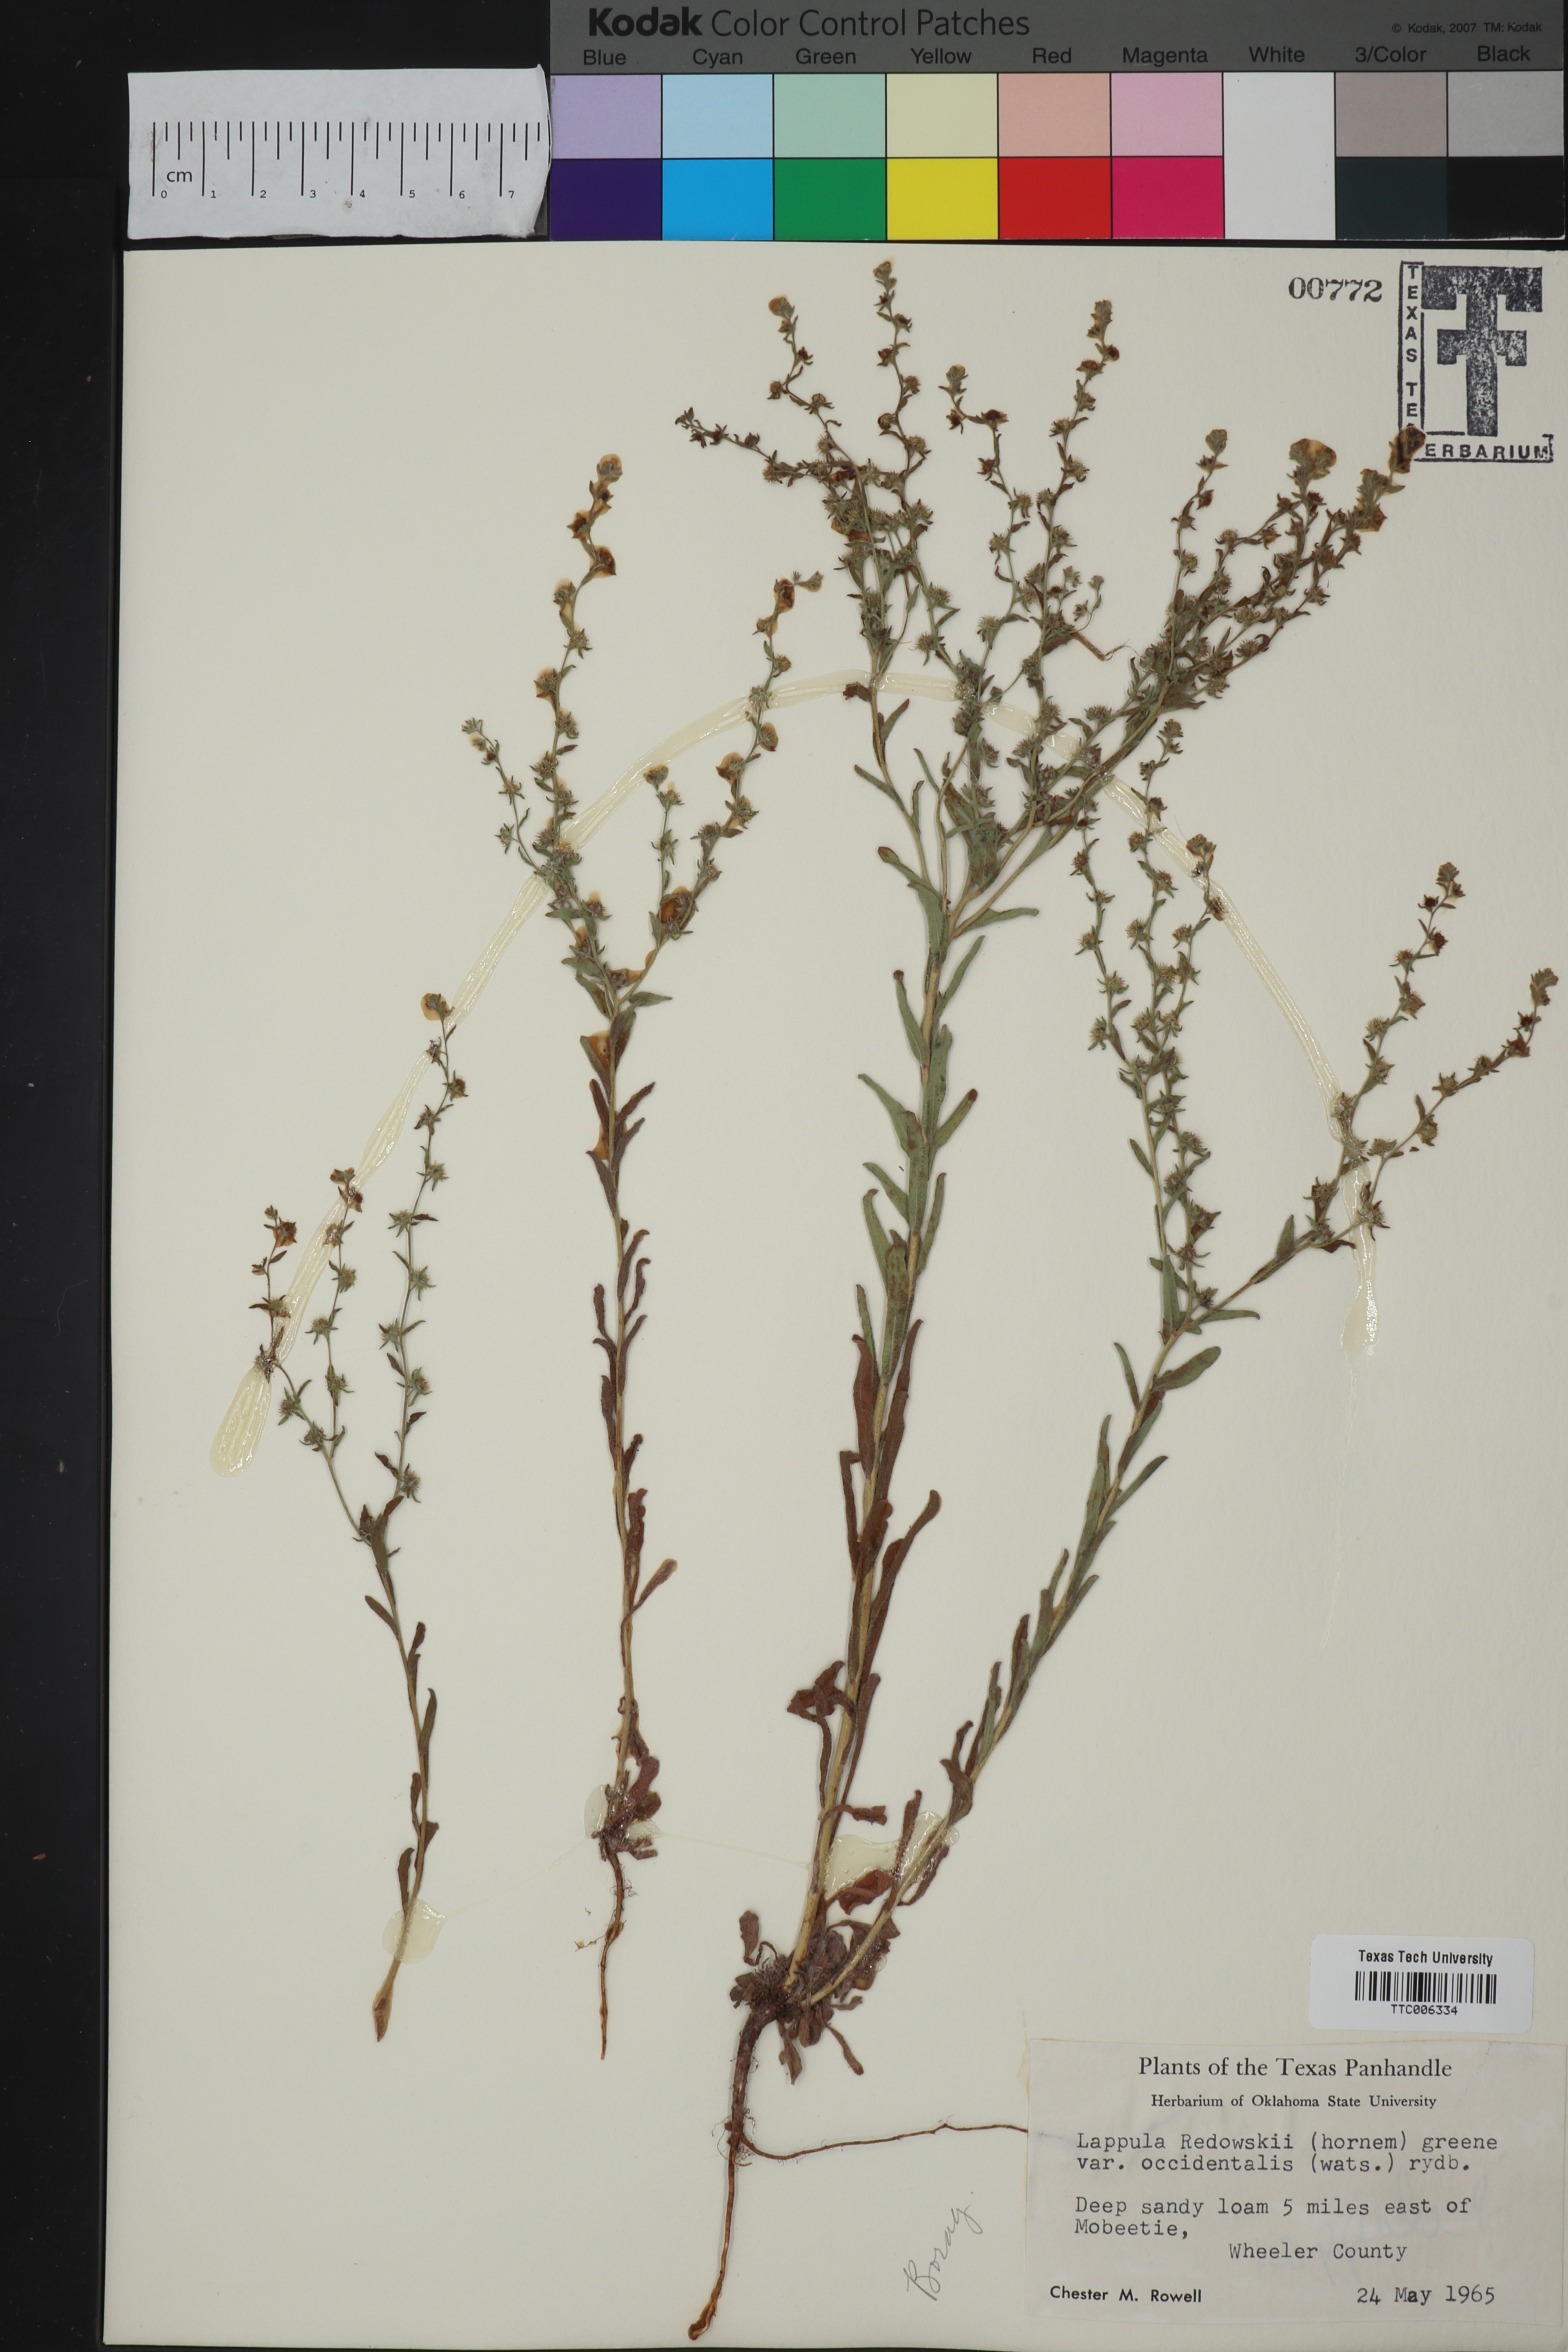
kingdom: Plantae
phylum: Tracheophyta
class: Magnoliopsida
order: Boraginales
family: Boraginaceae
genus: Lappula
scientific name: Lappula occidentalis
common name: Western stickseed
